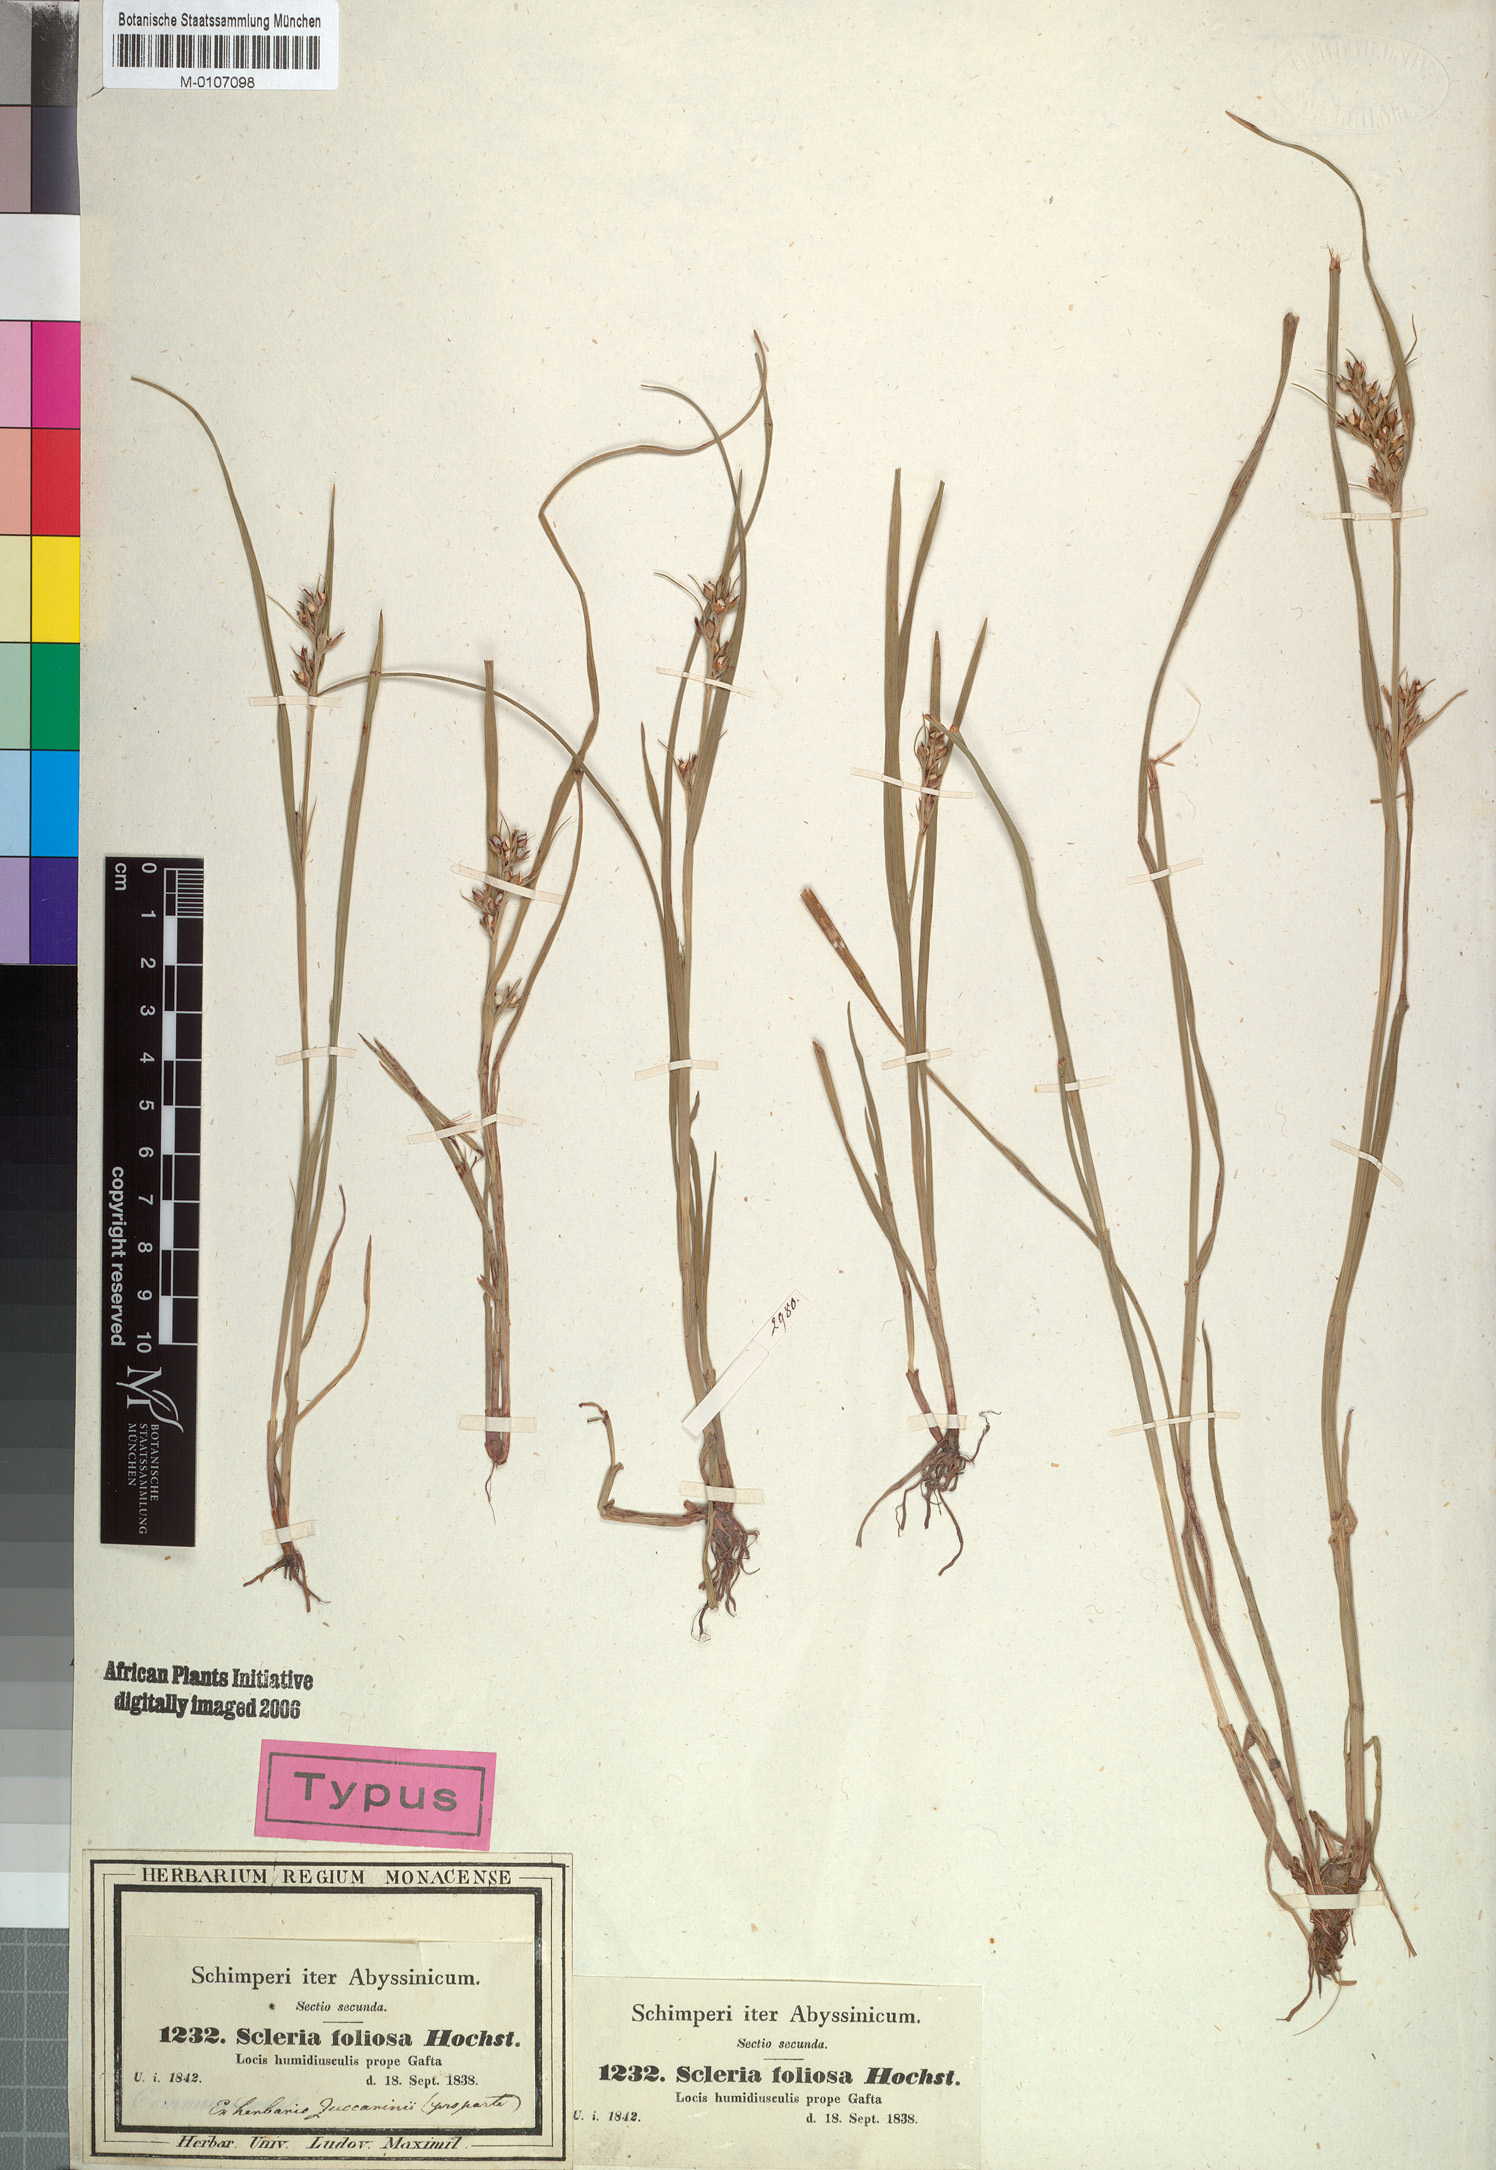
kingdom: Plantae
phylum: Tracheophyta
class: Liliopsida
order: Poales
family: Cyperaceae
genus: Scleria
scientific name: Scleria foliosa
